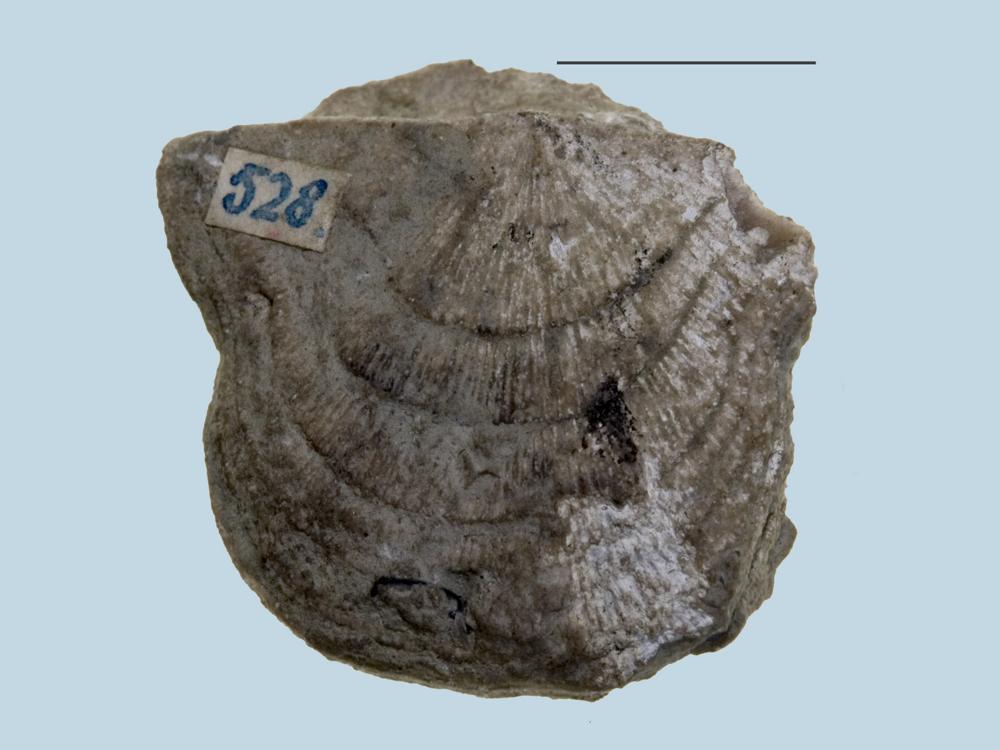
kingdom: Animalia
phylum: Brachiopoda
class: Rhynchonellata
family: Clitambonitidae
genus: Vellamo
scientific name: Vellamo emarginata
